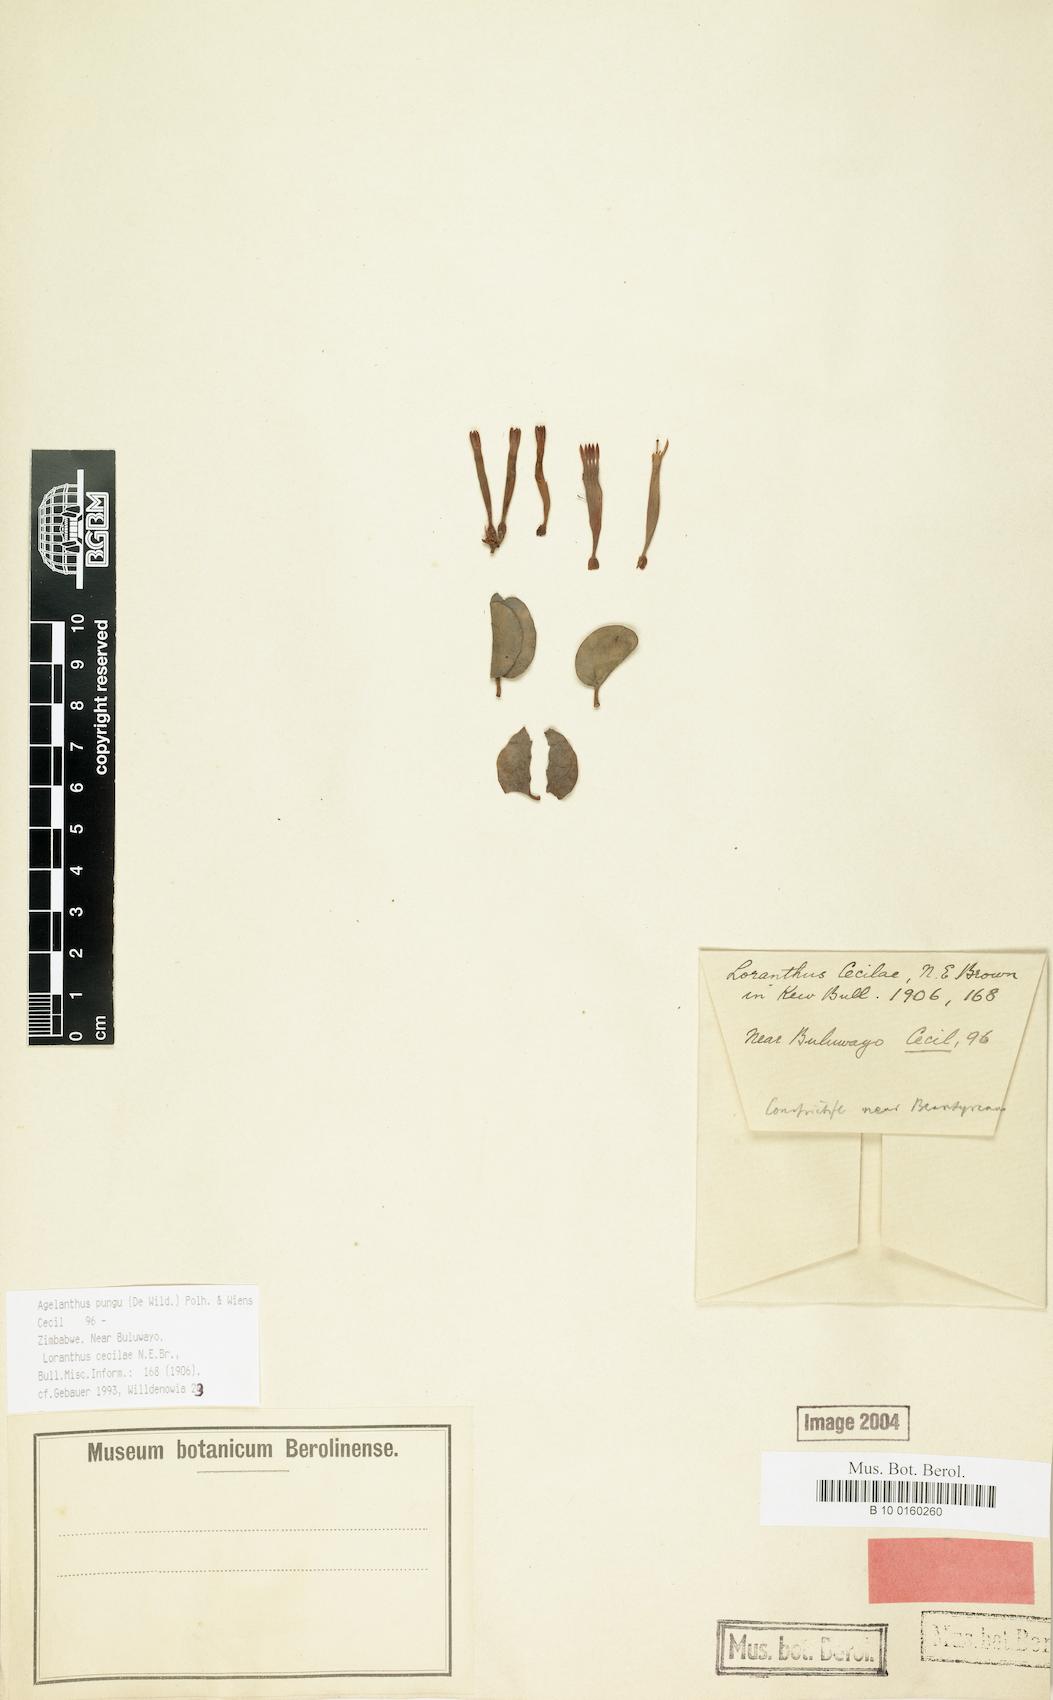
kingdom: Plantae
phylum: Tracheophyta
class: Magnoliopsida
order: Santalales
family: Loranthaceae
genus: Agelanthus
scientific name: Agelanthus pungu
